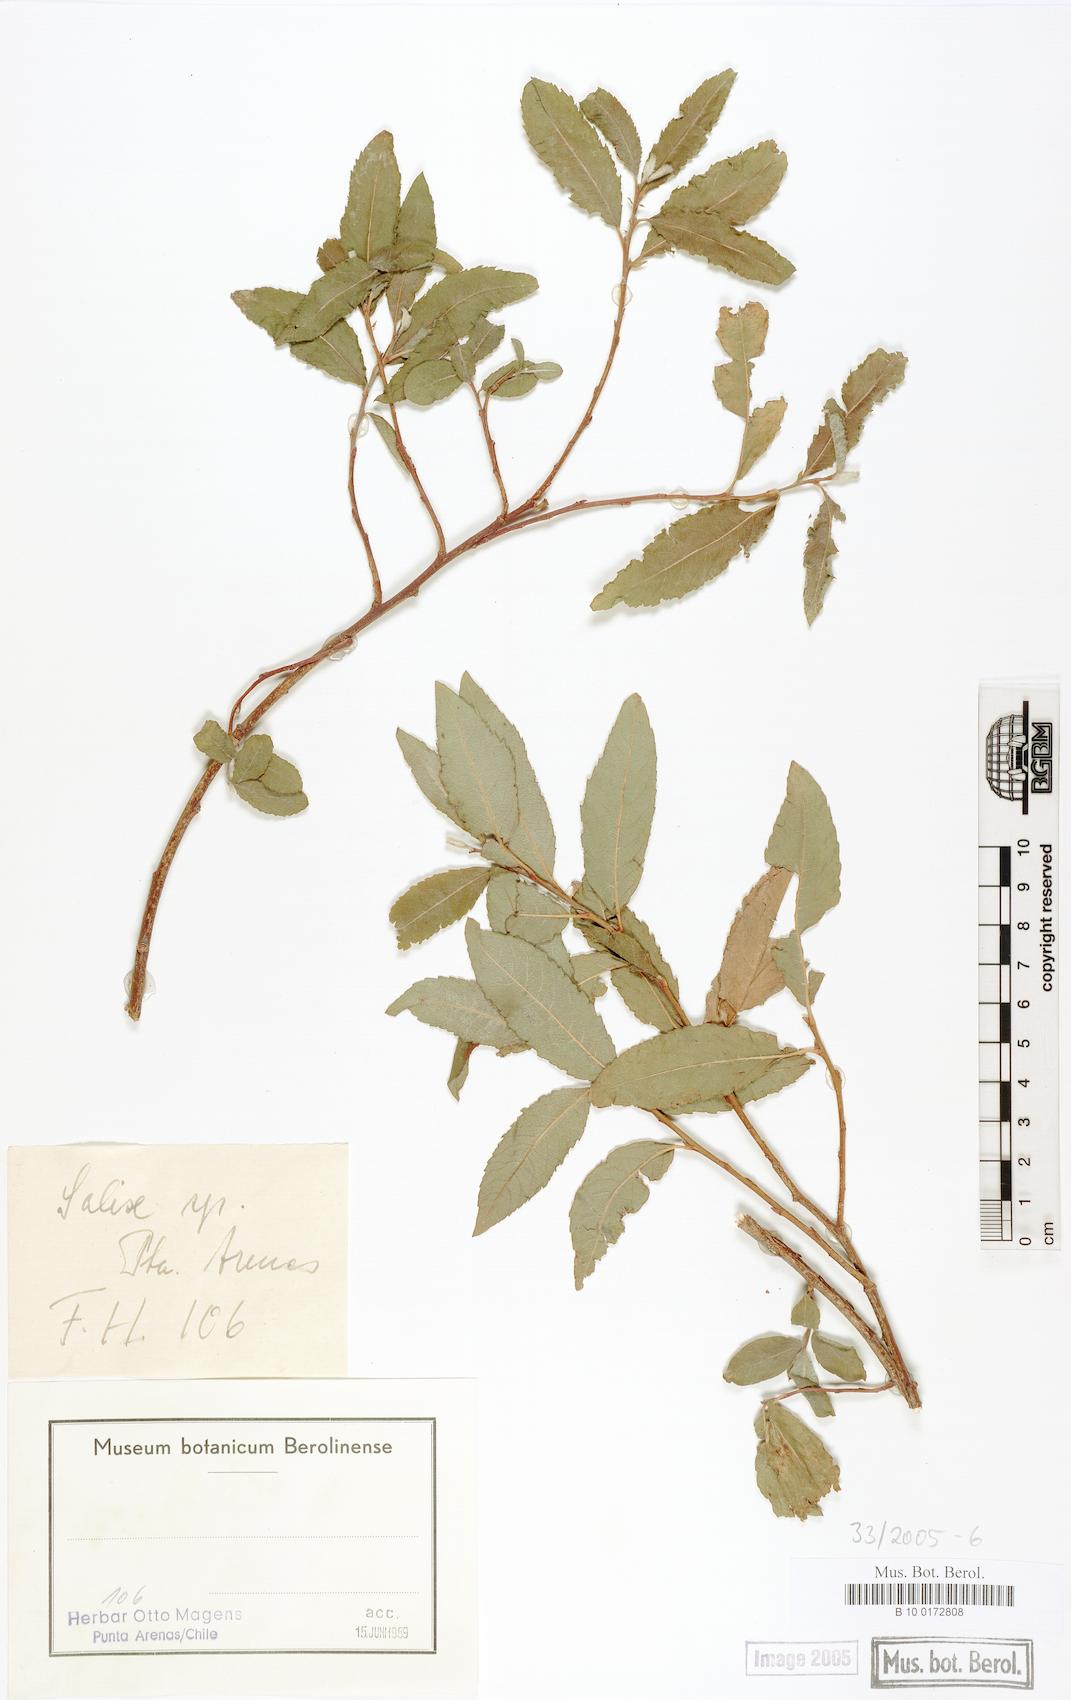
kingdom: Plantae
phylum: Tracheophyta
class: Magnoliopsida
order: Malpighiales
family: Salicaceae
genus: Salix
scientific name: Salix
